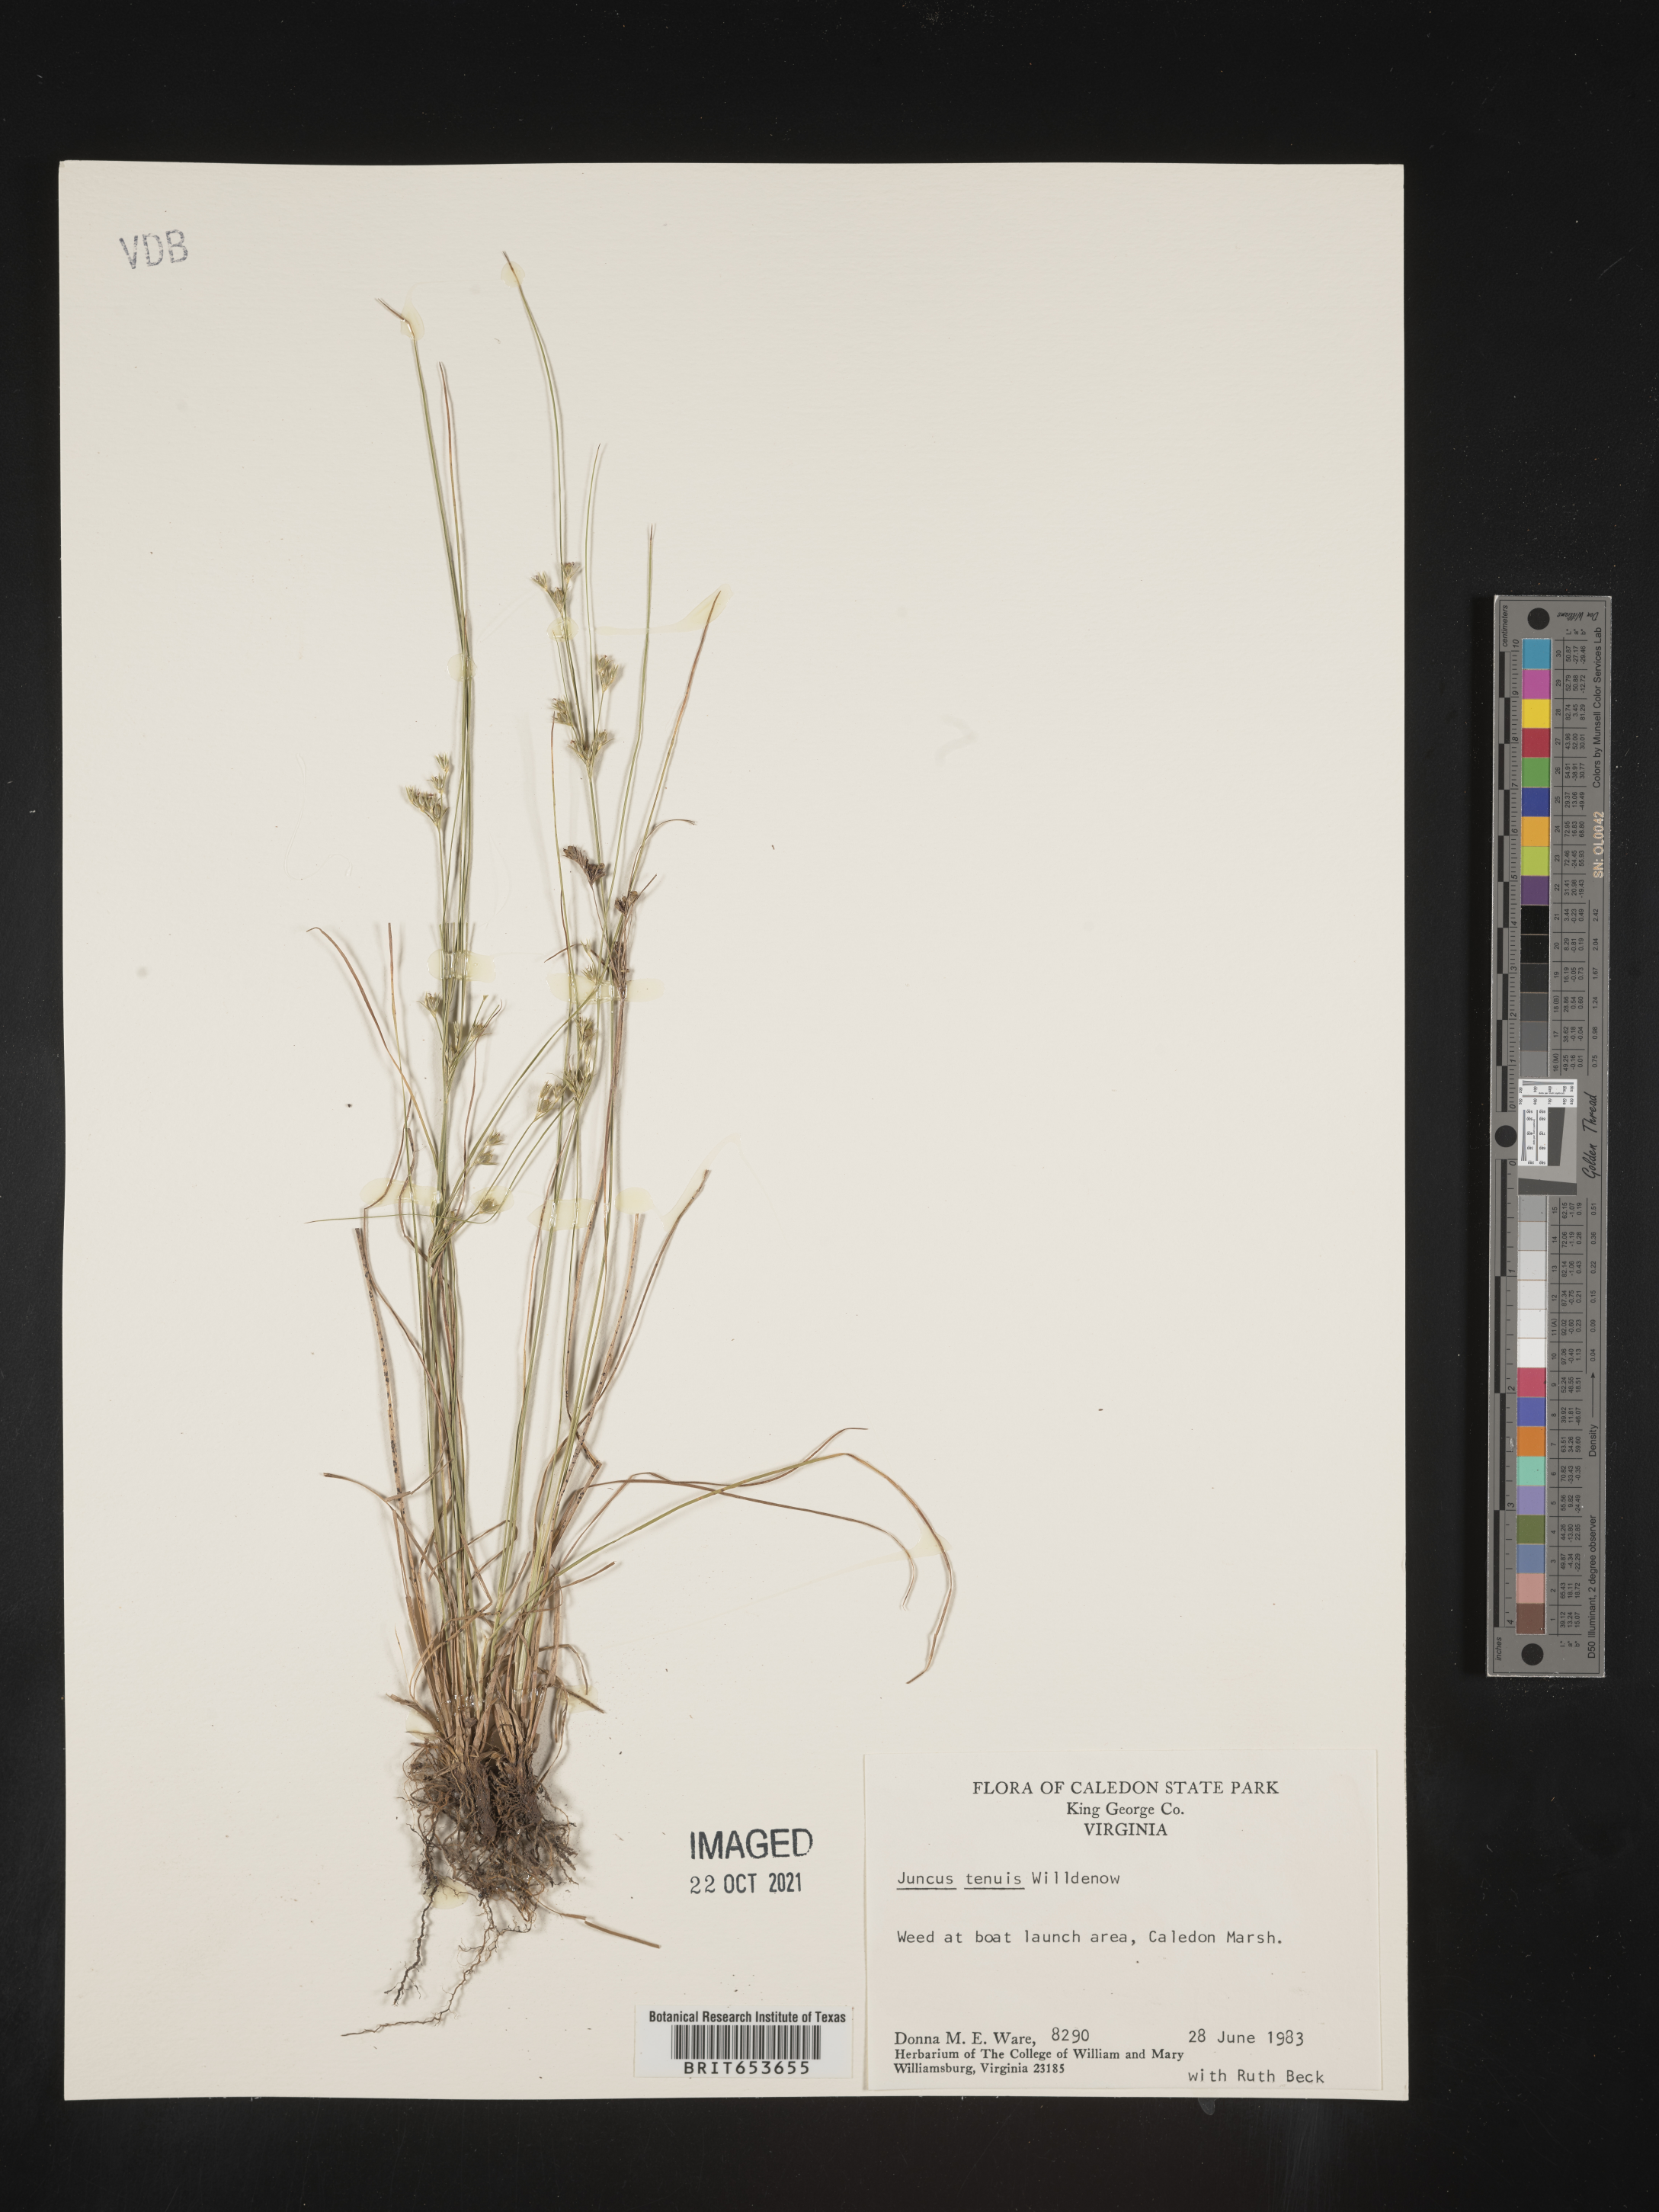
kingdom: Plantae
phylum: Tracheophyta
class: Liliopsida
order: Poales
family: Juncaceae
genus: Juncus
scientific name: Juncus tenuis
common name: Slender rush
